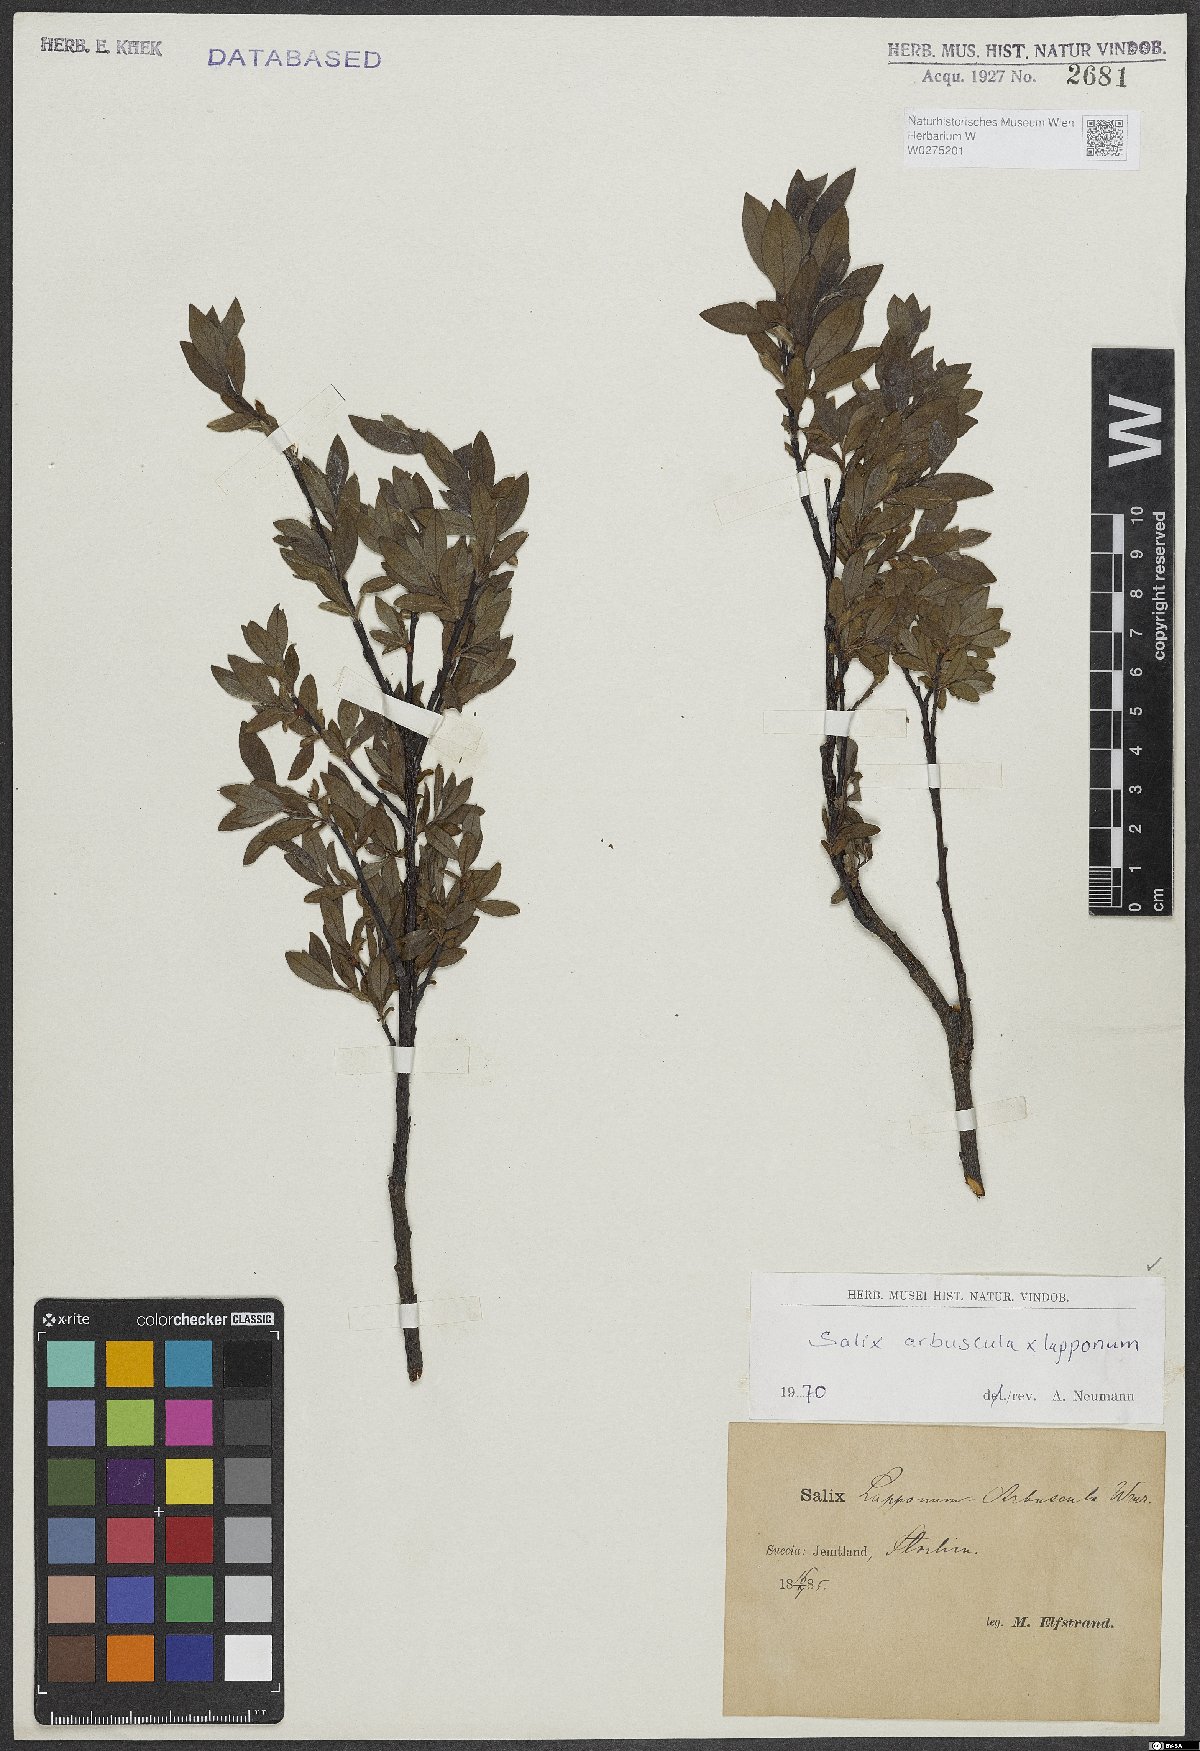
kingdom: Plantae
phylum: Tracheophyta
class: Magnoliopsida
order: Malpighiales
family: Salicaceae
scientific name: Salicaceae
